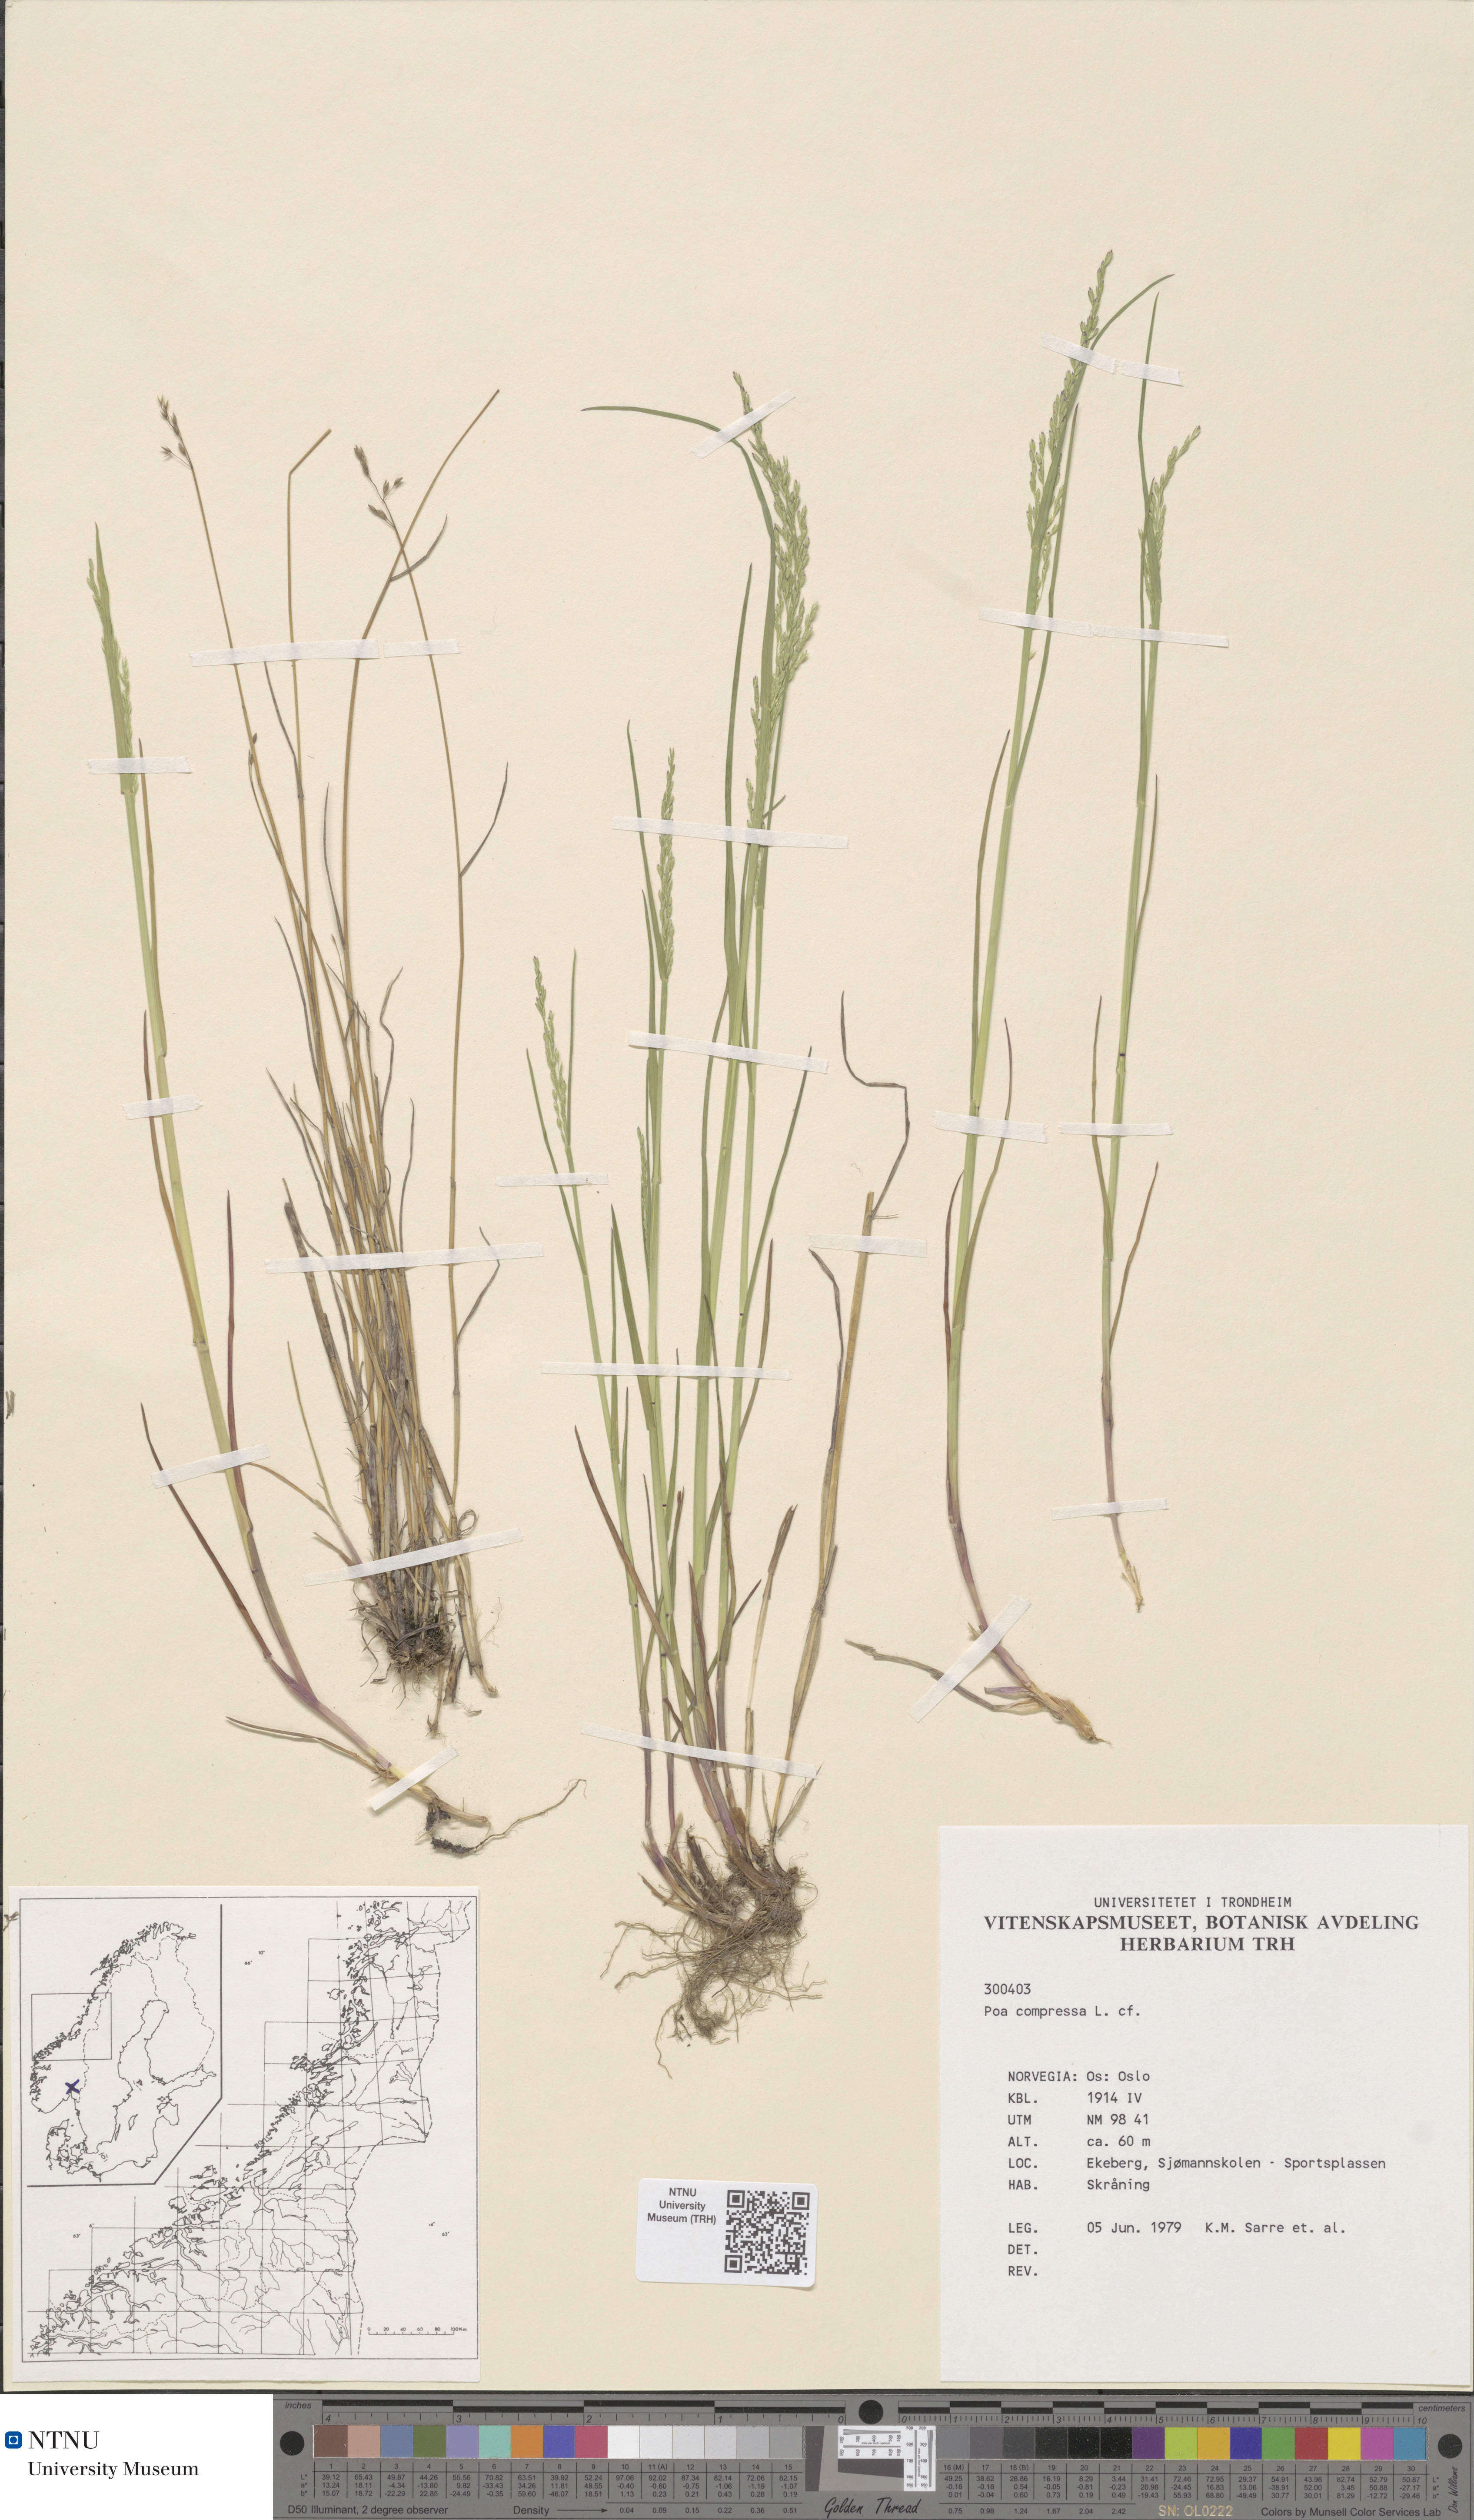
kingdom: Plantae
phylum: Tracheophyta
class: Liliopsida
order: Poales
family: Poaceae
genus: Poa
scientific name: Poa compressa
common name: Canada bluegrass
